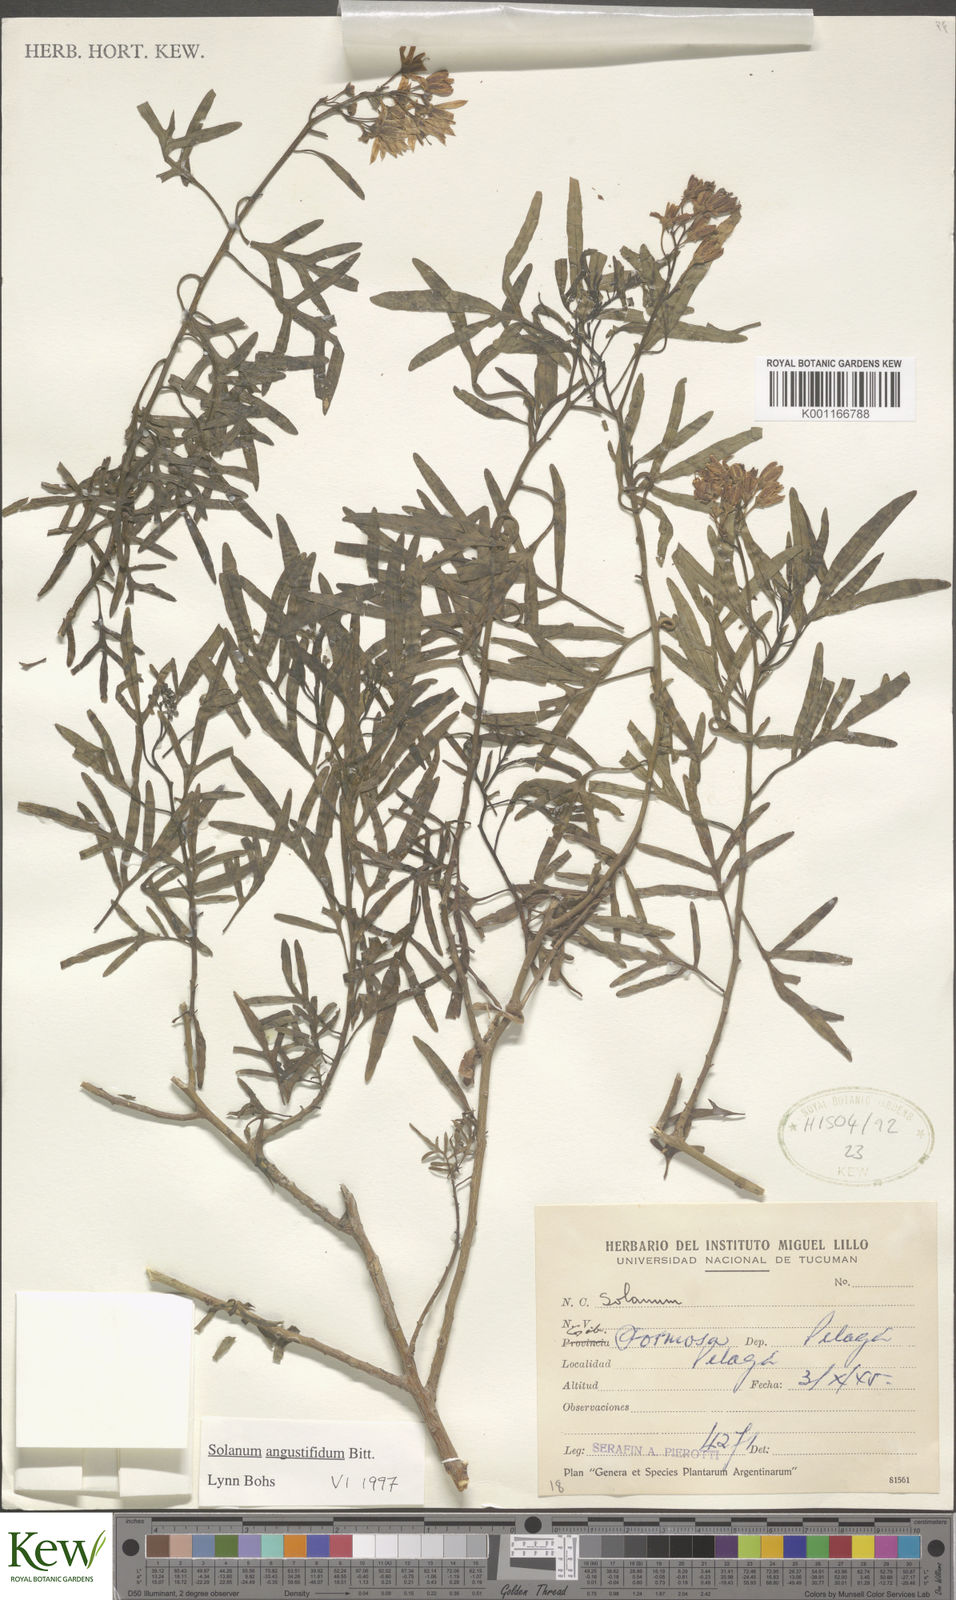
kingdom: Plantae
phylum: Tracheophyta
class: Magnoliopsida
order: Solanales
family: Solanaceae
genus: Solanum
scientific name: Solanum
